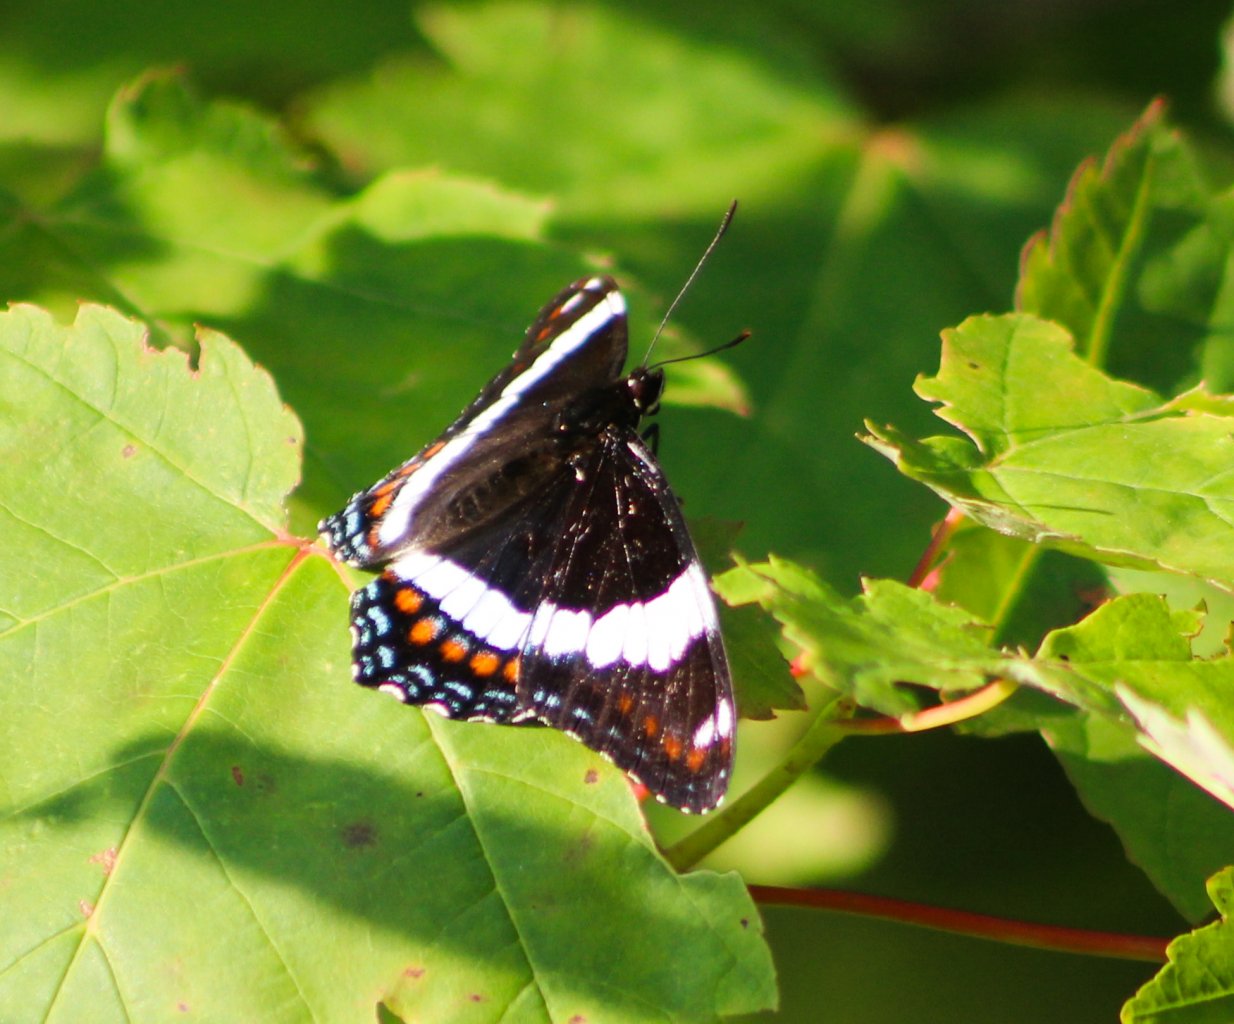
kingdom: Animalia
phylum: Arthropoda
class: Insecta
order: Lepidoptera
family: Nymphalidae
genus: Limenitis
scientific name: Limenitis arthemis
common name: Red-spotted Admiral
